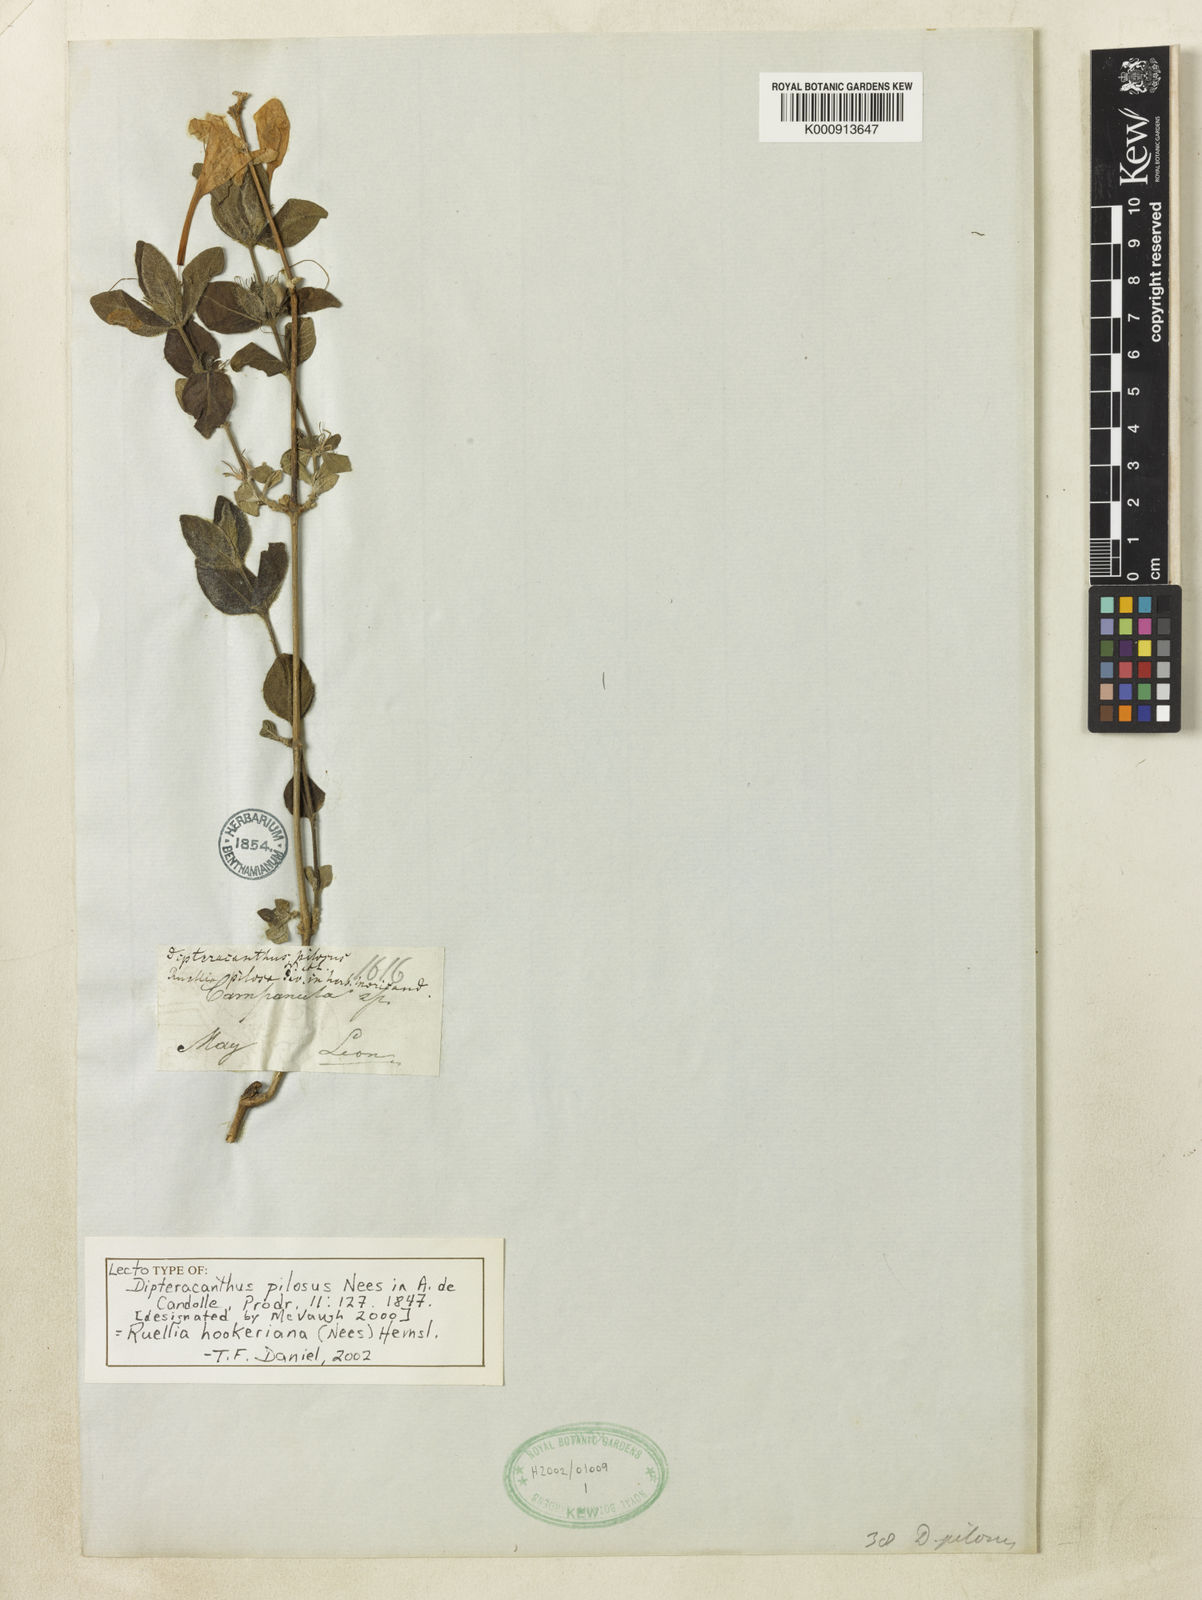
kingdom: Plantae
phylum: Tracheophyta
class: Magnoliopsida
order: Lamiales
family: Acanthaceae
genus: Ruellia
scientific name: Ruellia hookeriana
